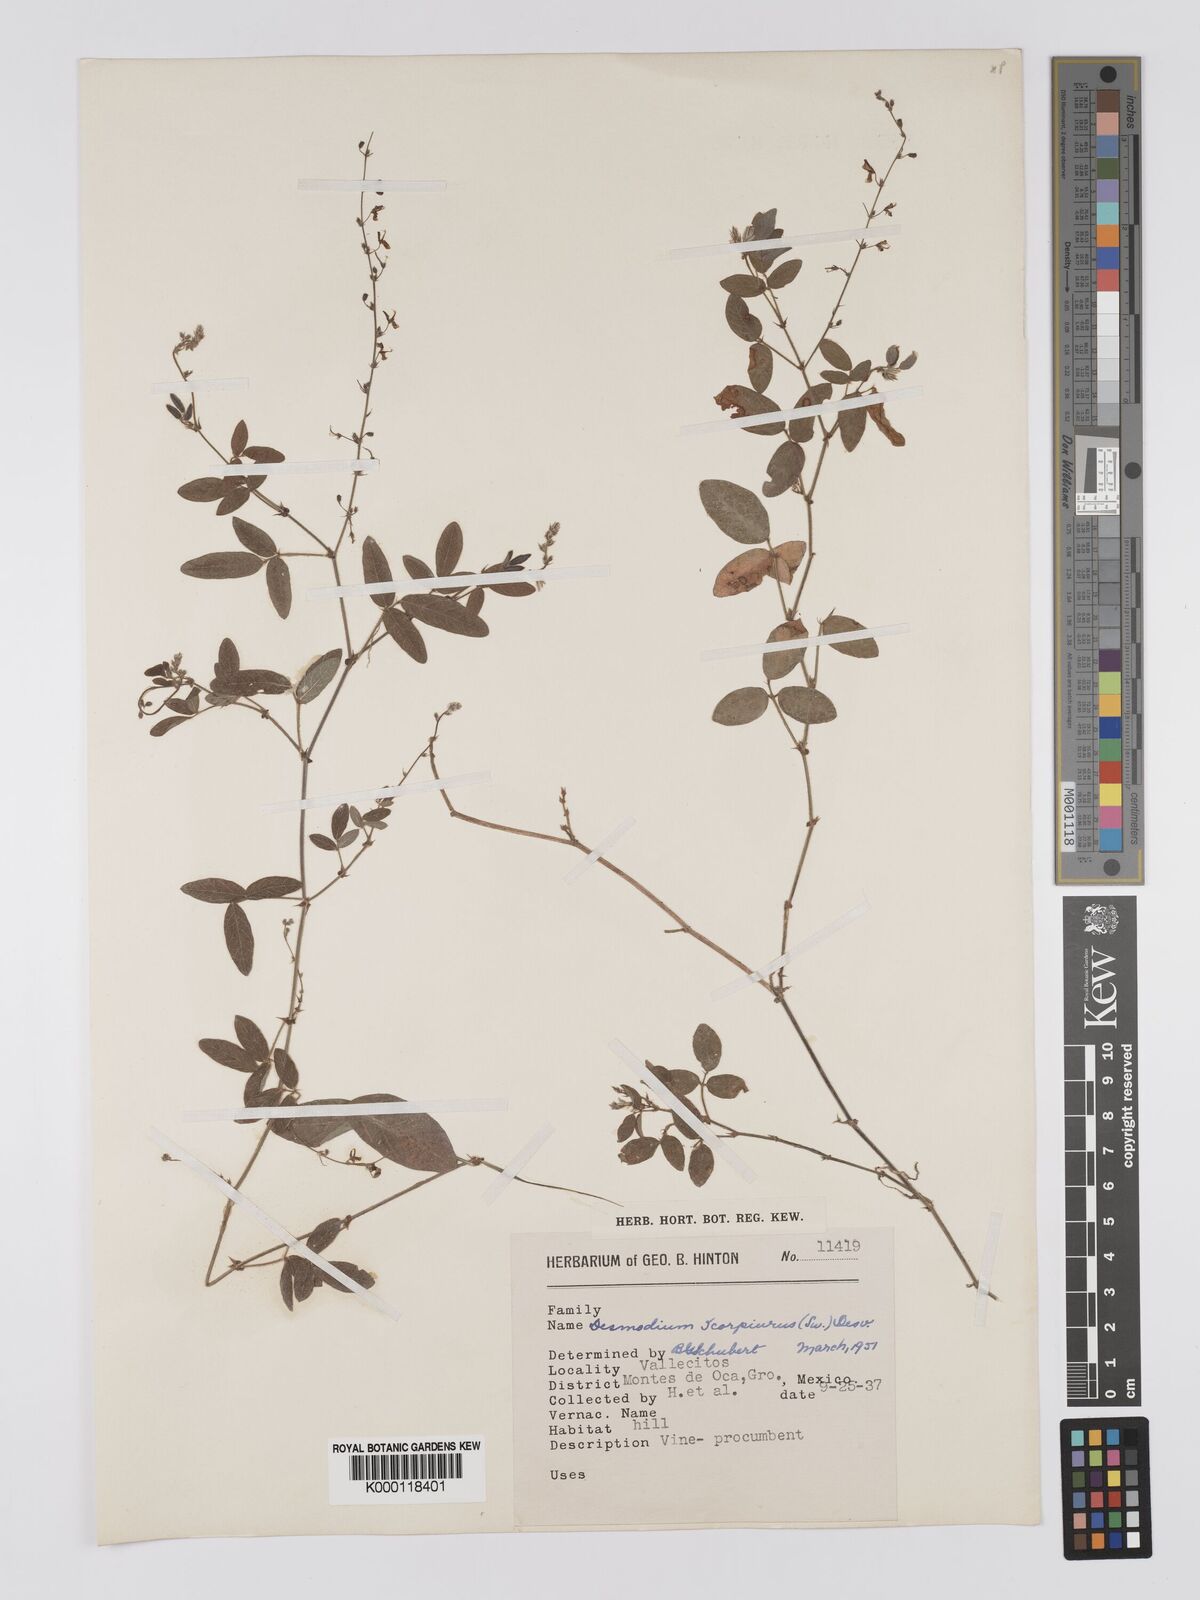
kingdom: Plantae
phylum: Tracheophyta
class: Magnoliopsida
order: Fabales
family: Fabaceae
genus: Desmodium
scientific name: Desmodium
